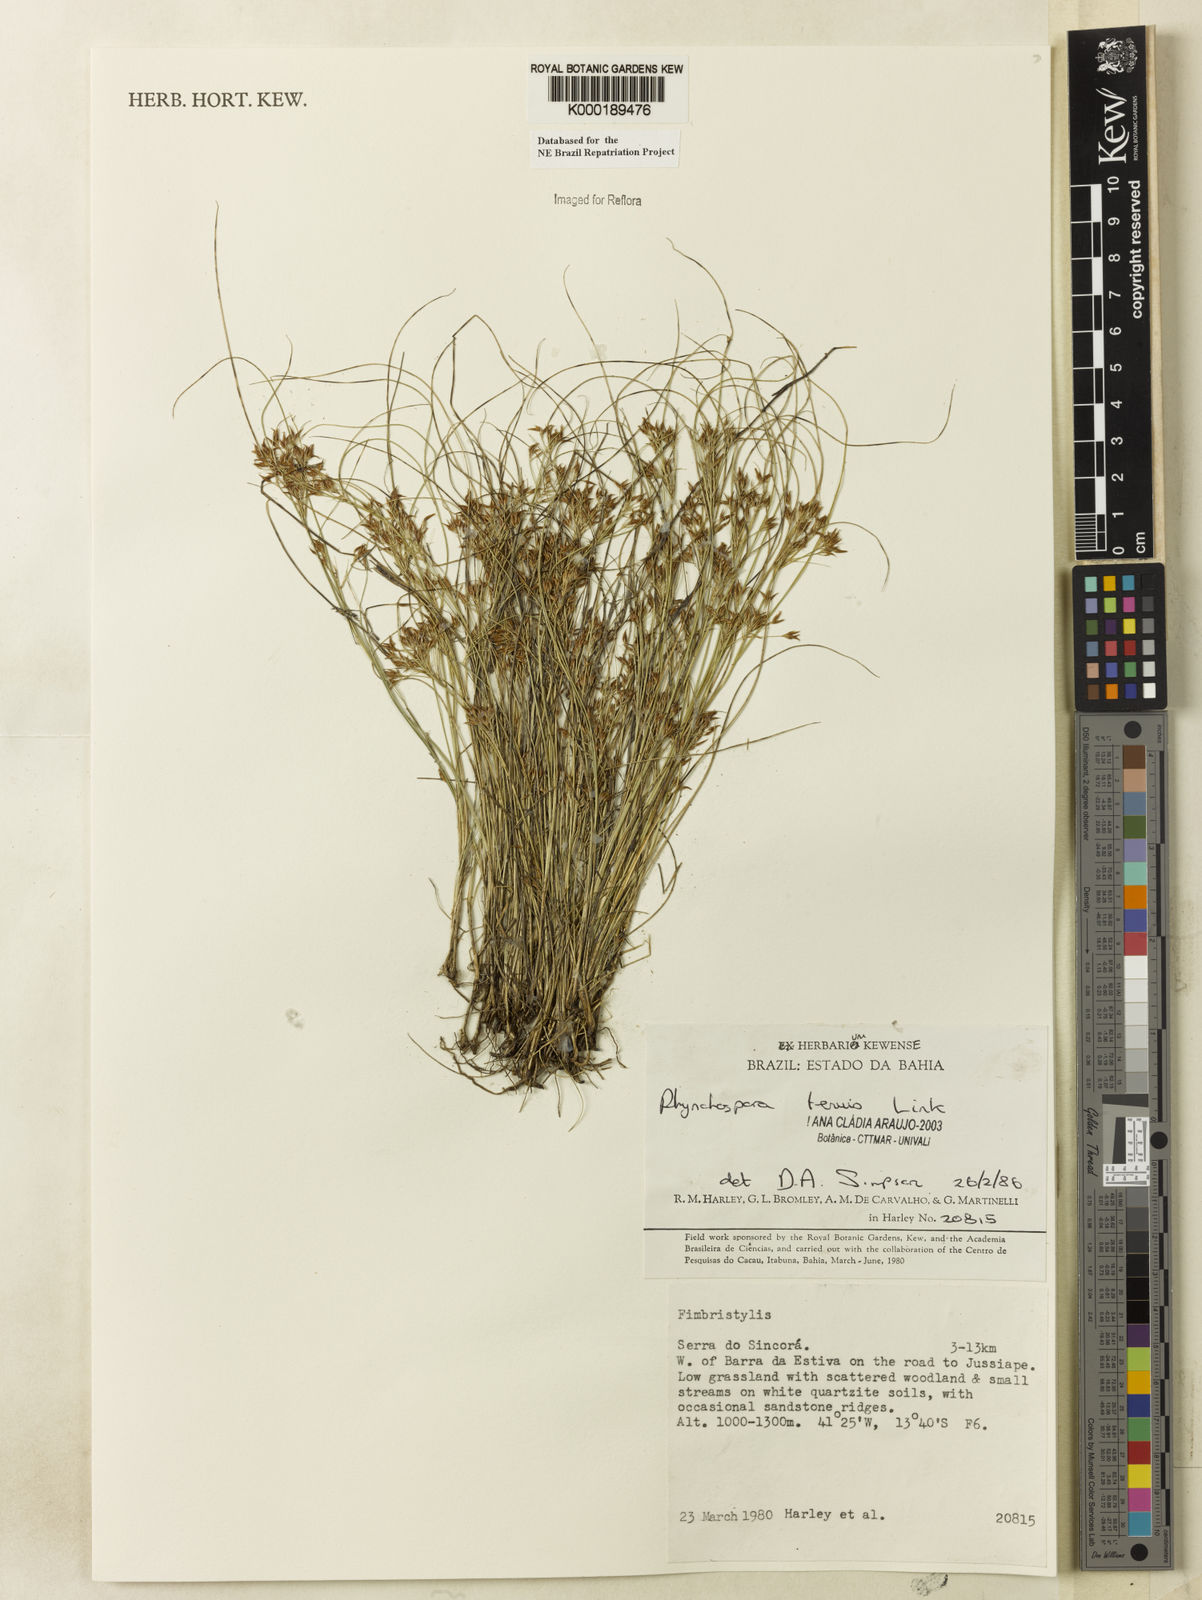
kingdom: Plantae
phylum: Tracheophyta
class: Liliopsida
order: Poales
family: Cyperaceae
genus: Rhynchospora
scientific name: Rhynchospora tenuis
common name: Quill beaksedge
